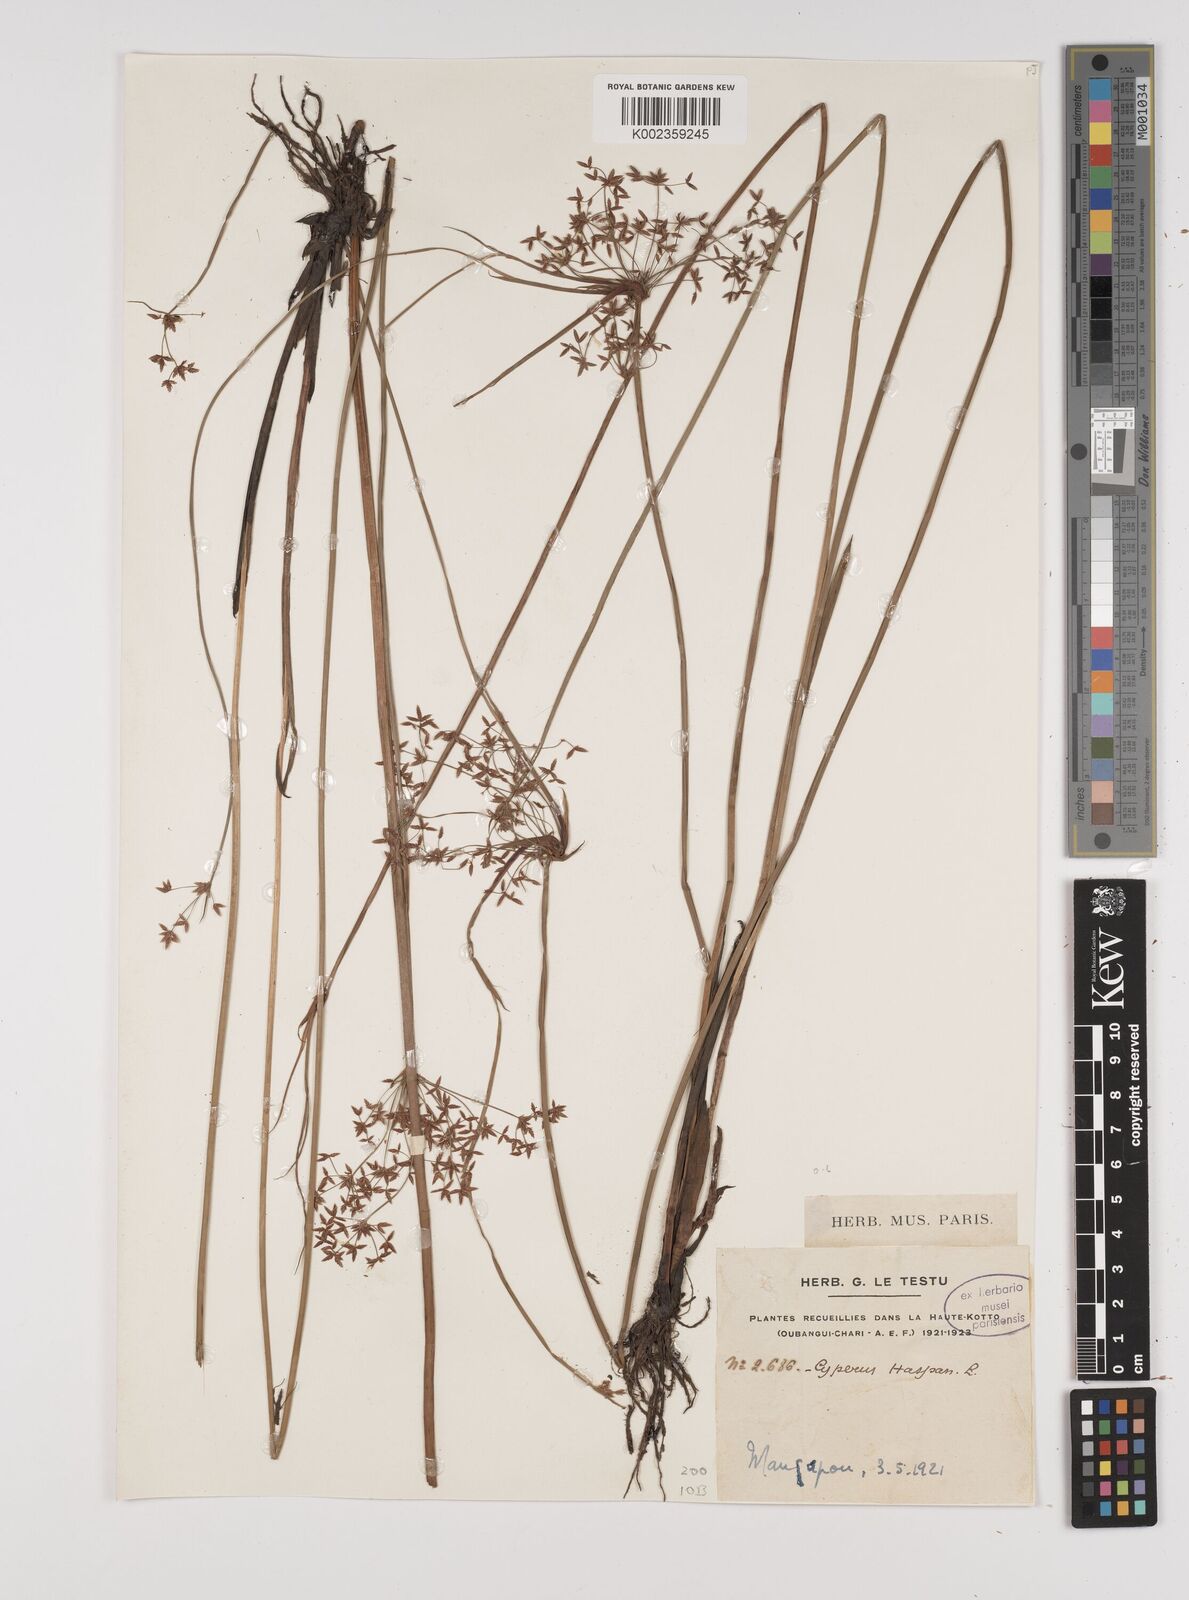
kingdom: Plantae
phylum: Tracheophyta
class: Liliopsida
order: Poales
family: Cyperaceae
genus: Cyperus
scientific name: Cyperus haspan
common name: Haspan flatsedge
